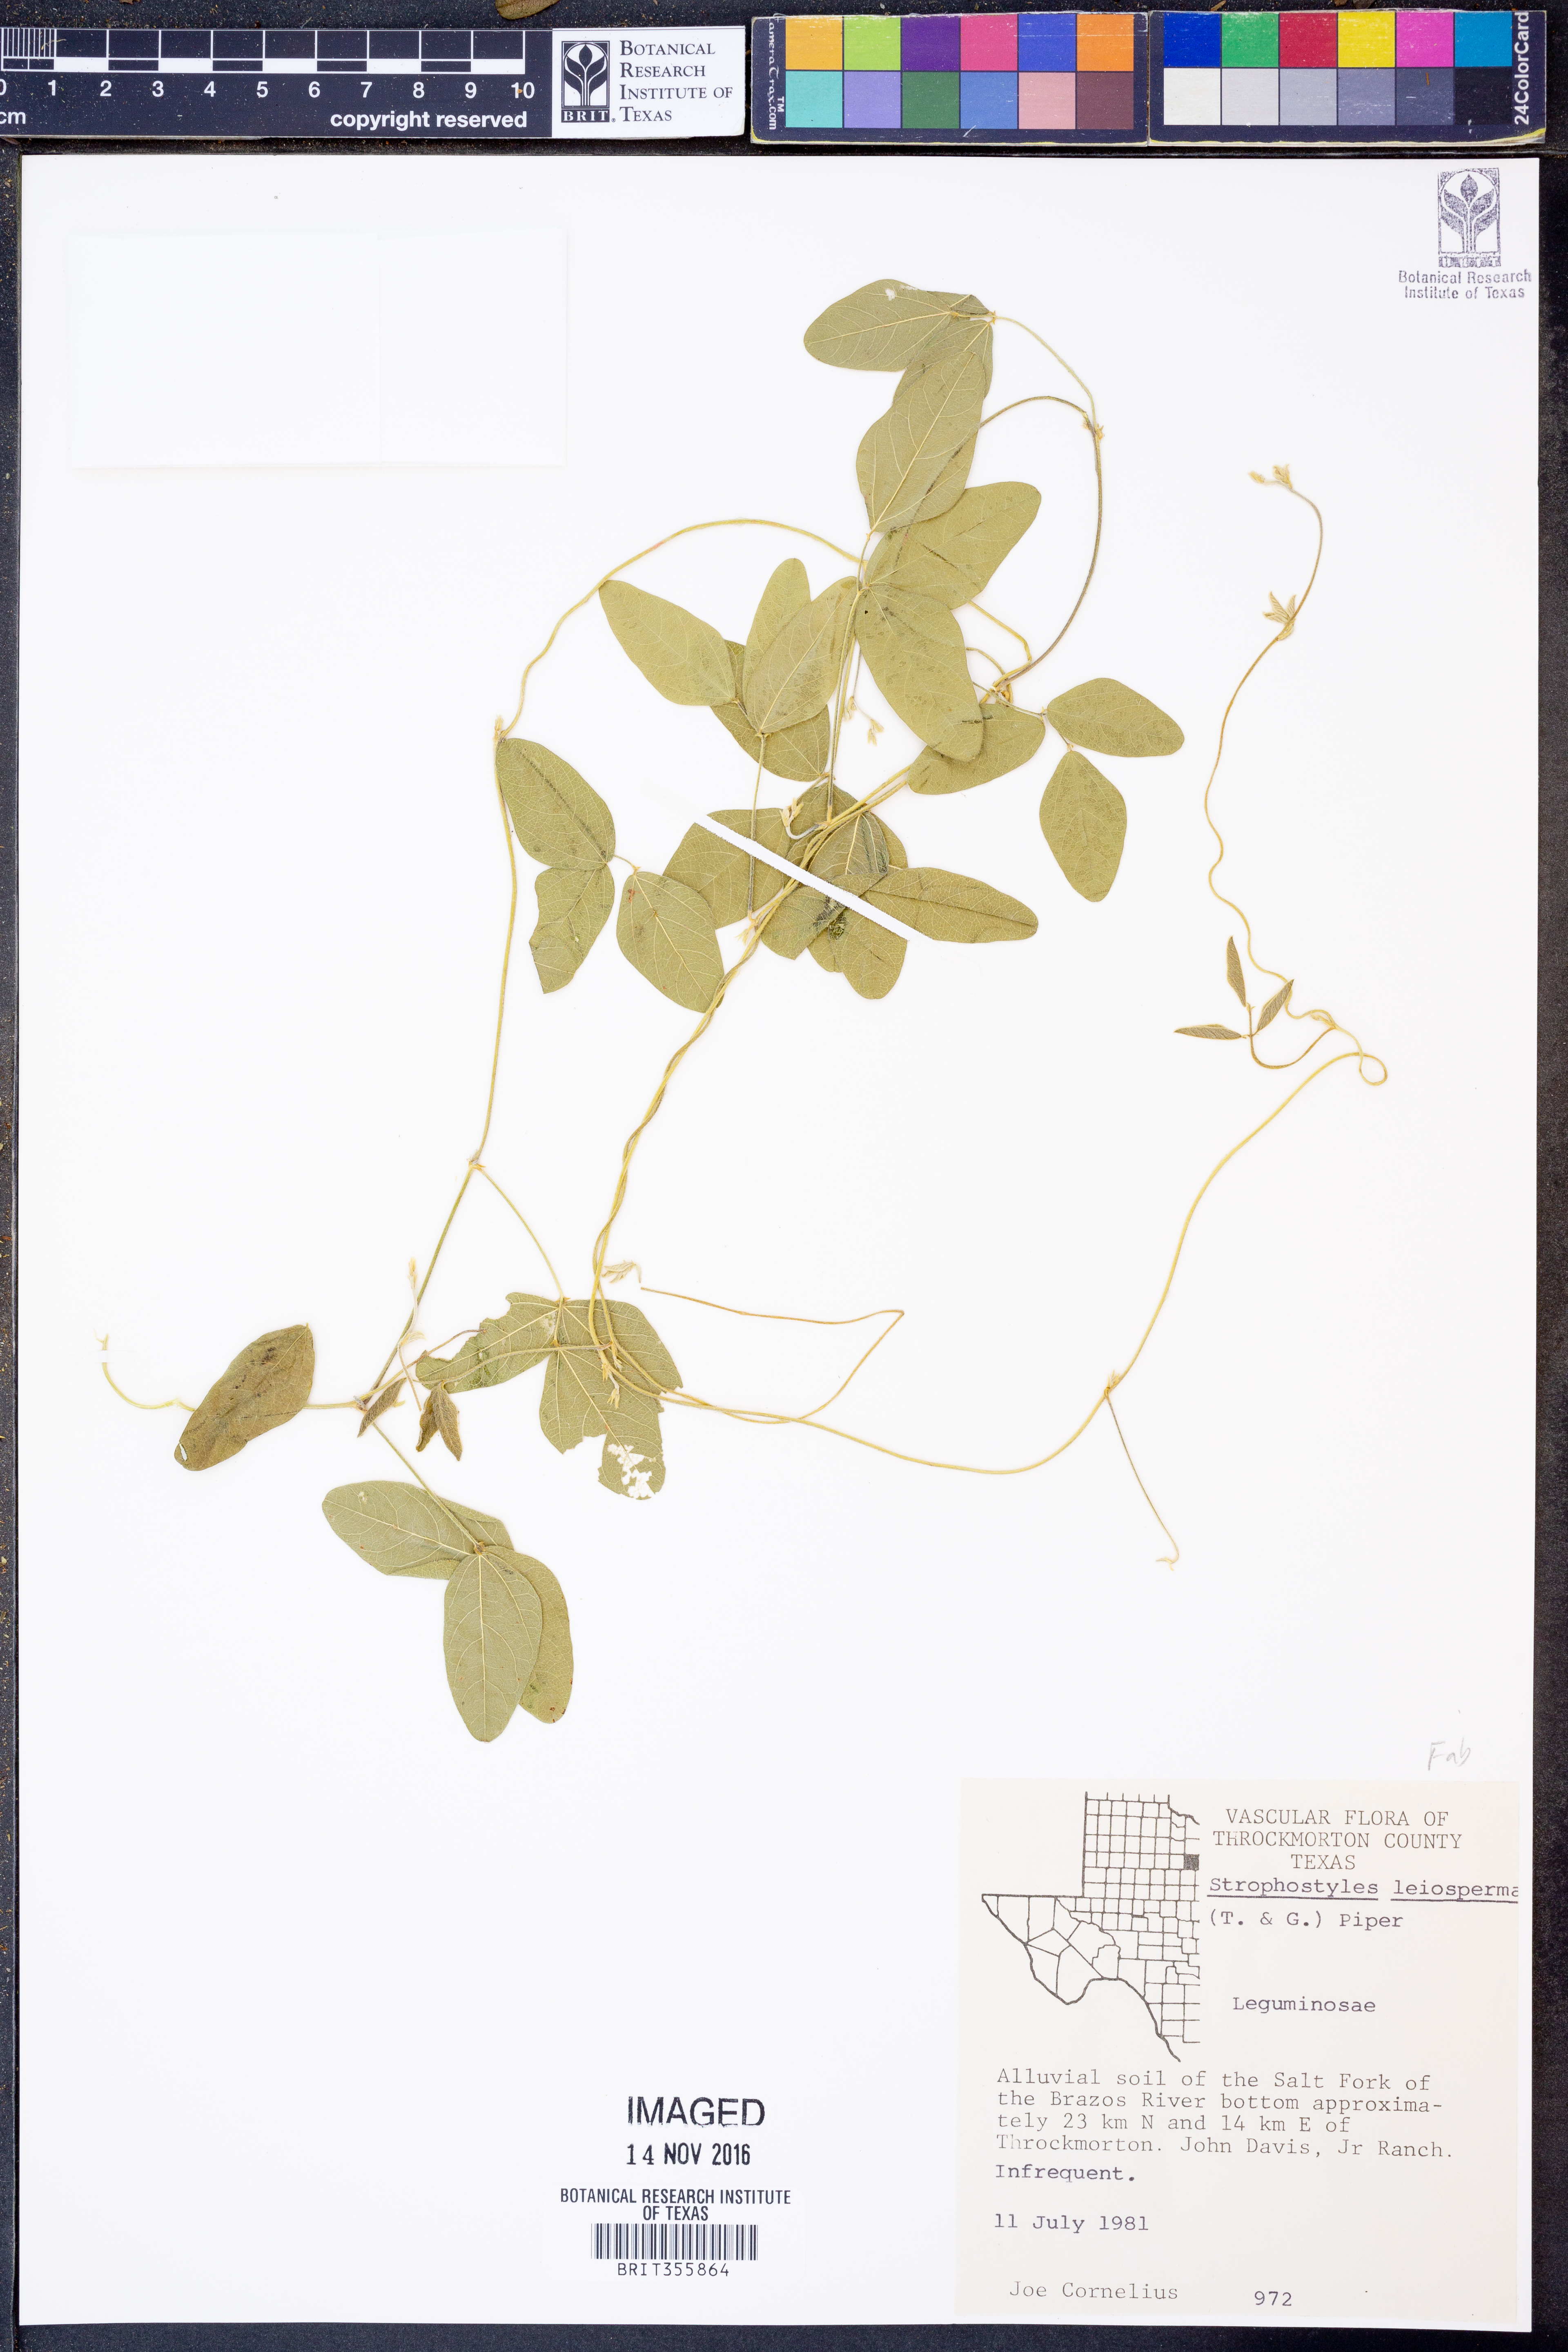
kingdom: Plantae
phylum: Tracheophyta
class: Magnoliopsida
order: Fabales
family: Fabaceae
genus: Strophostyles
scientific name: Strophostyles leiosperma
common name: Smooth-seed wild bean
